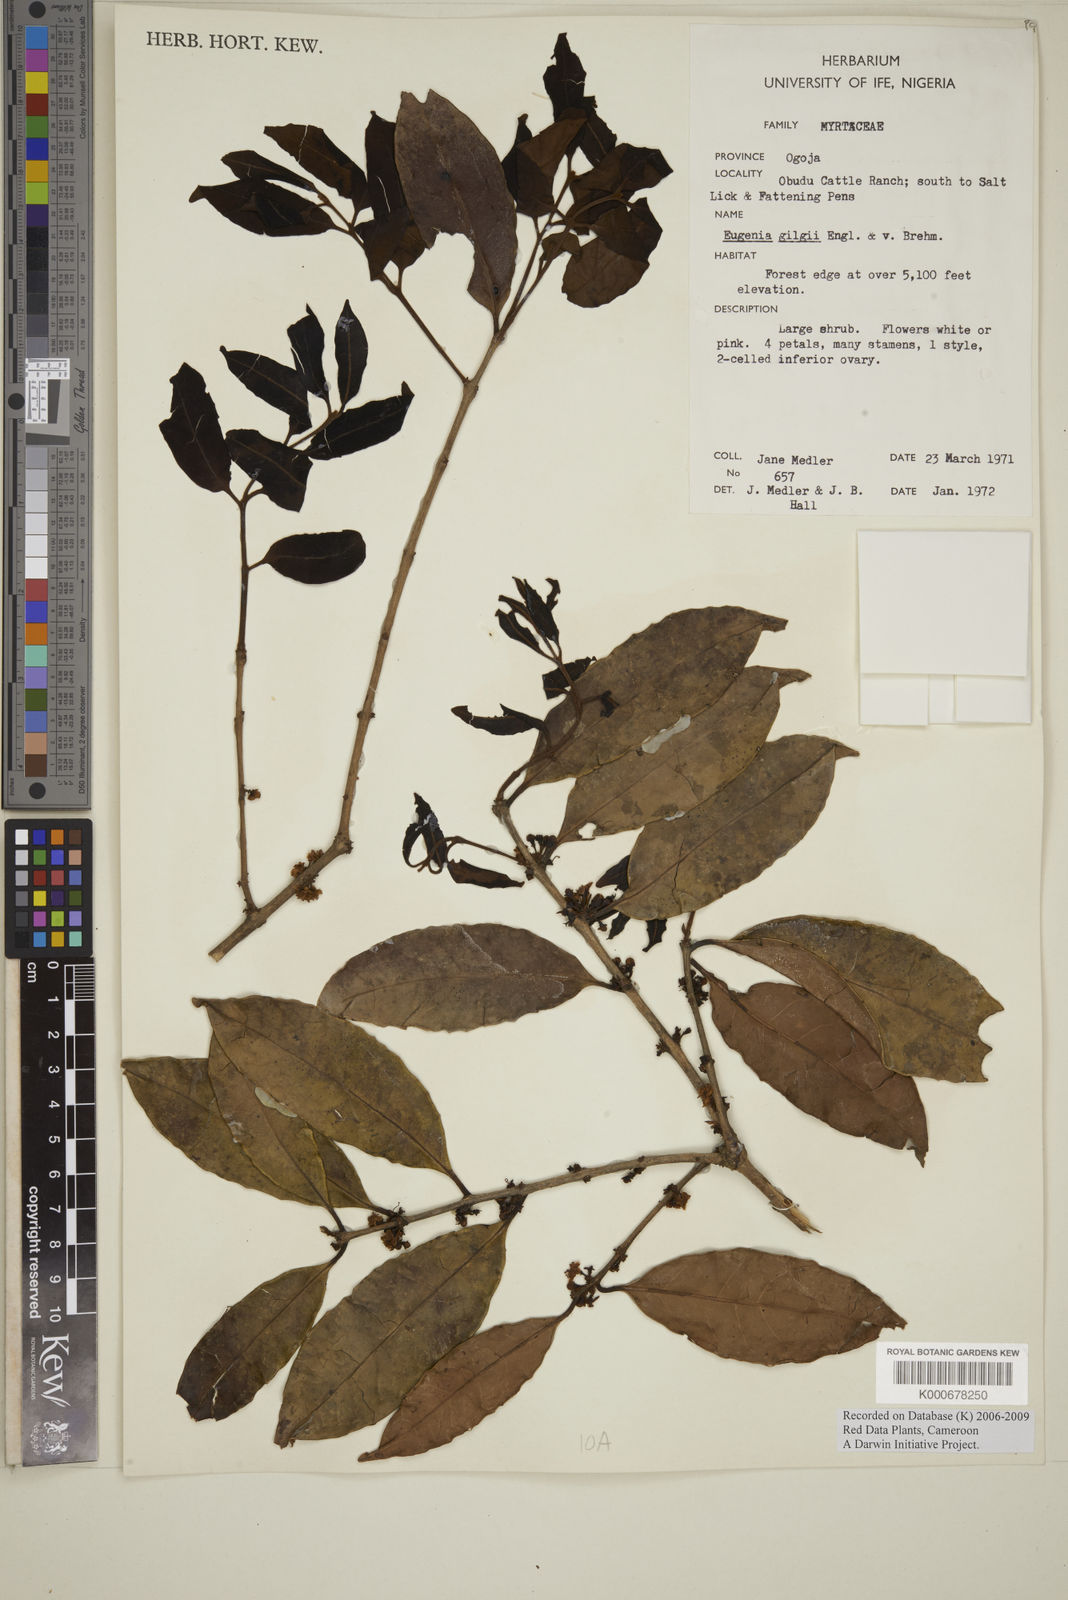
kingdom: Plantae
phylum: Tracheophyta
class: Magnoliopsida
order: Myrtales
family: Myrtaceae
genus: Eugenia
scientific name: Eugenia gilgii
